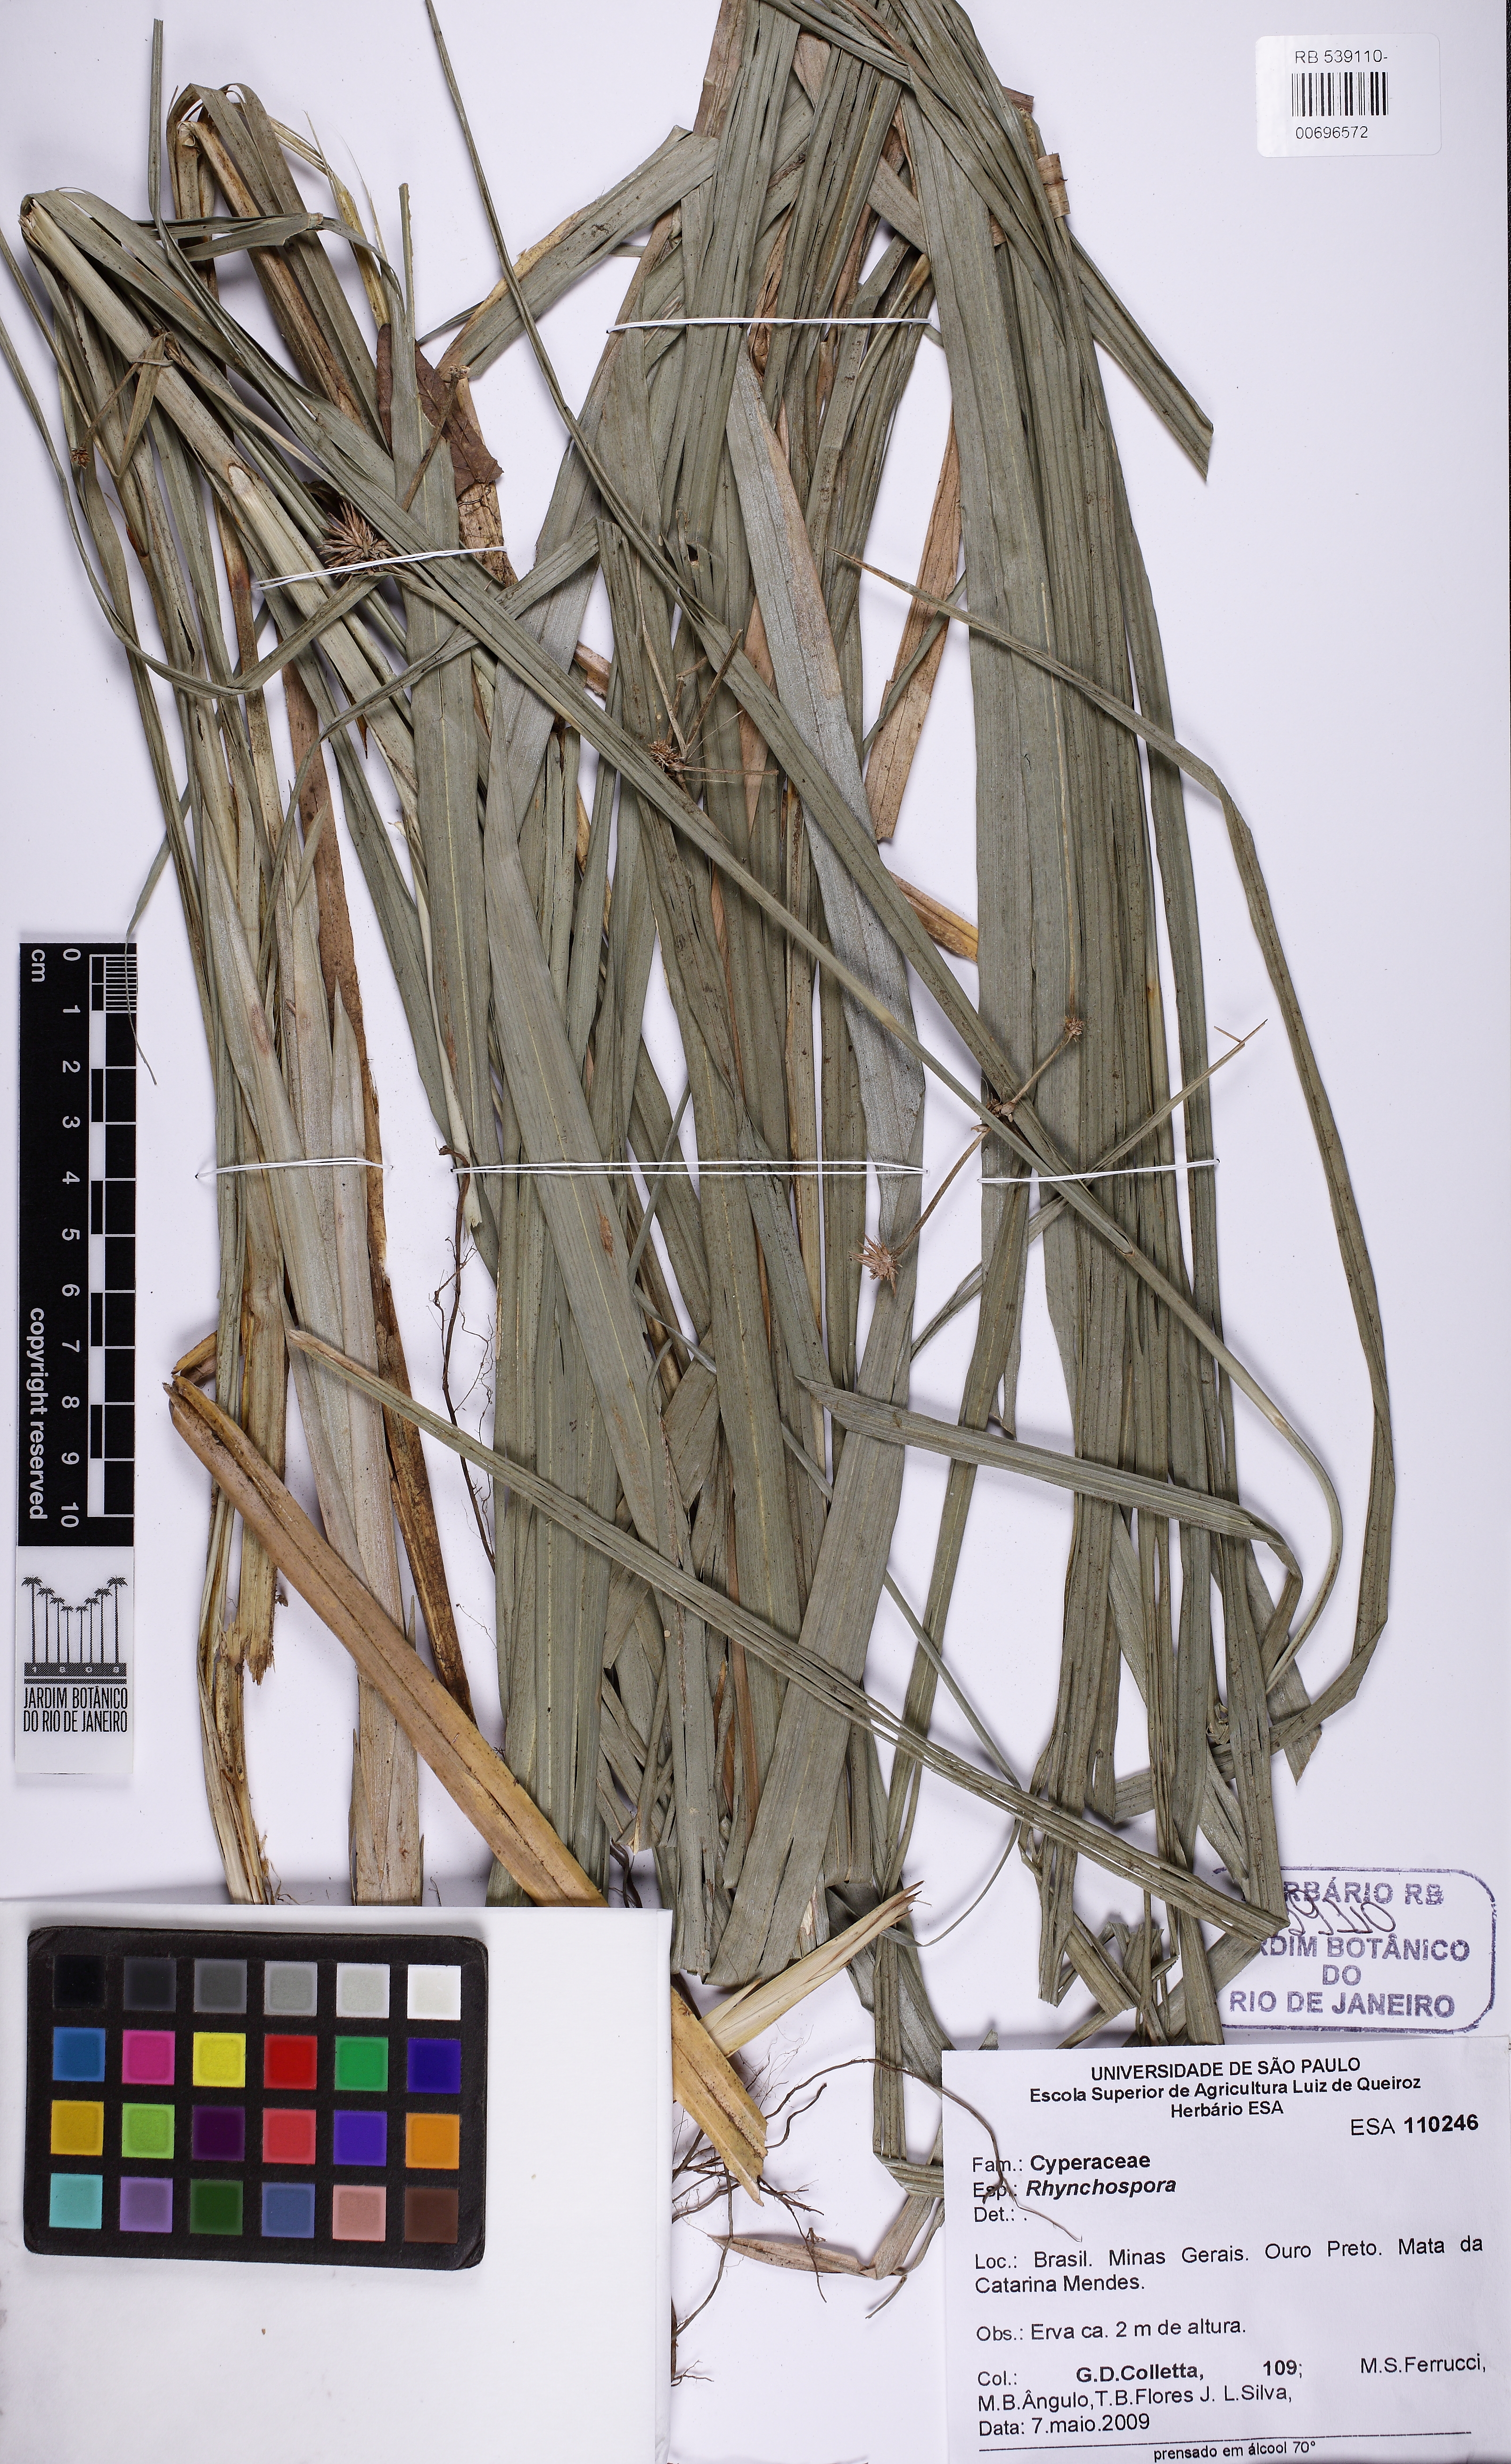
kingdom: Plantae
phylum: Tracheophyta
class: Liliopsida
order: Poales
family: Cyperaceae
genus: Rhynchospora
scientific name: Rhynchospora
